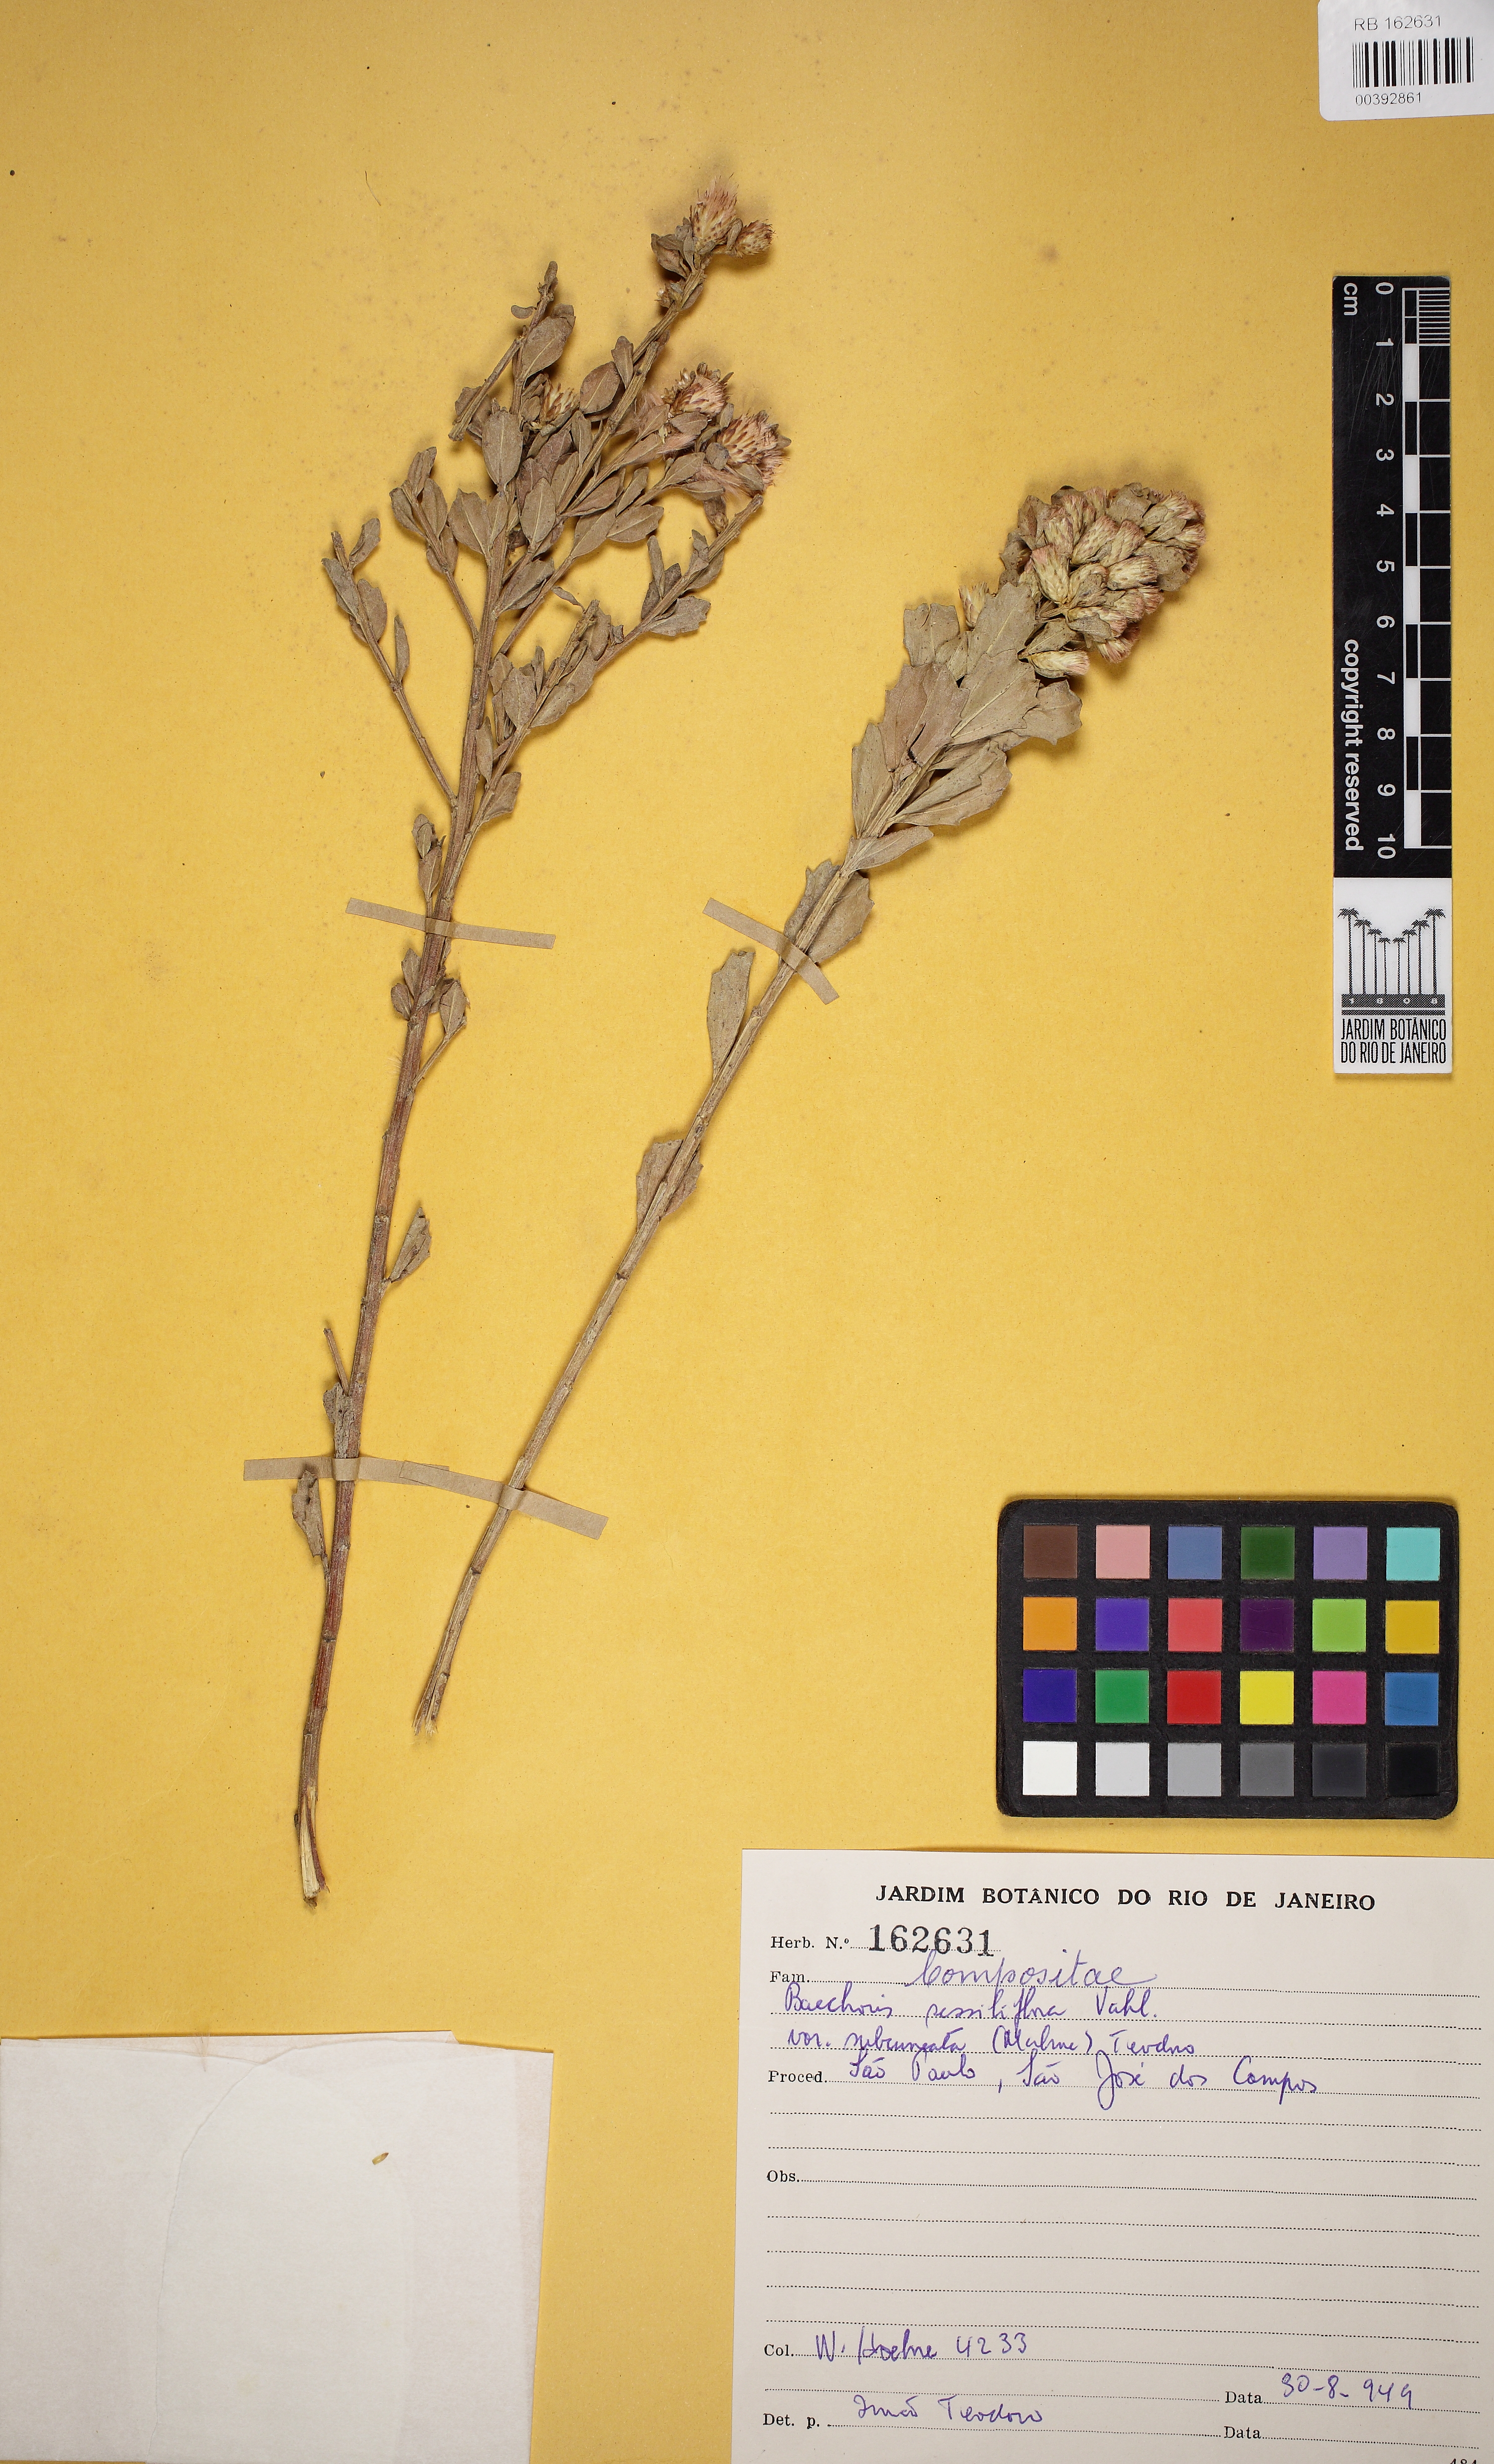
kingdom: Plantae
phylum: Tracheophyta
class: Magnoliopsida
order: Asterales
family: Asteraceae
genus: Baccharis
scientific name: Baccharis sessiliflora
